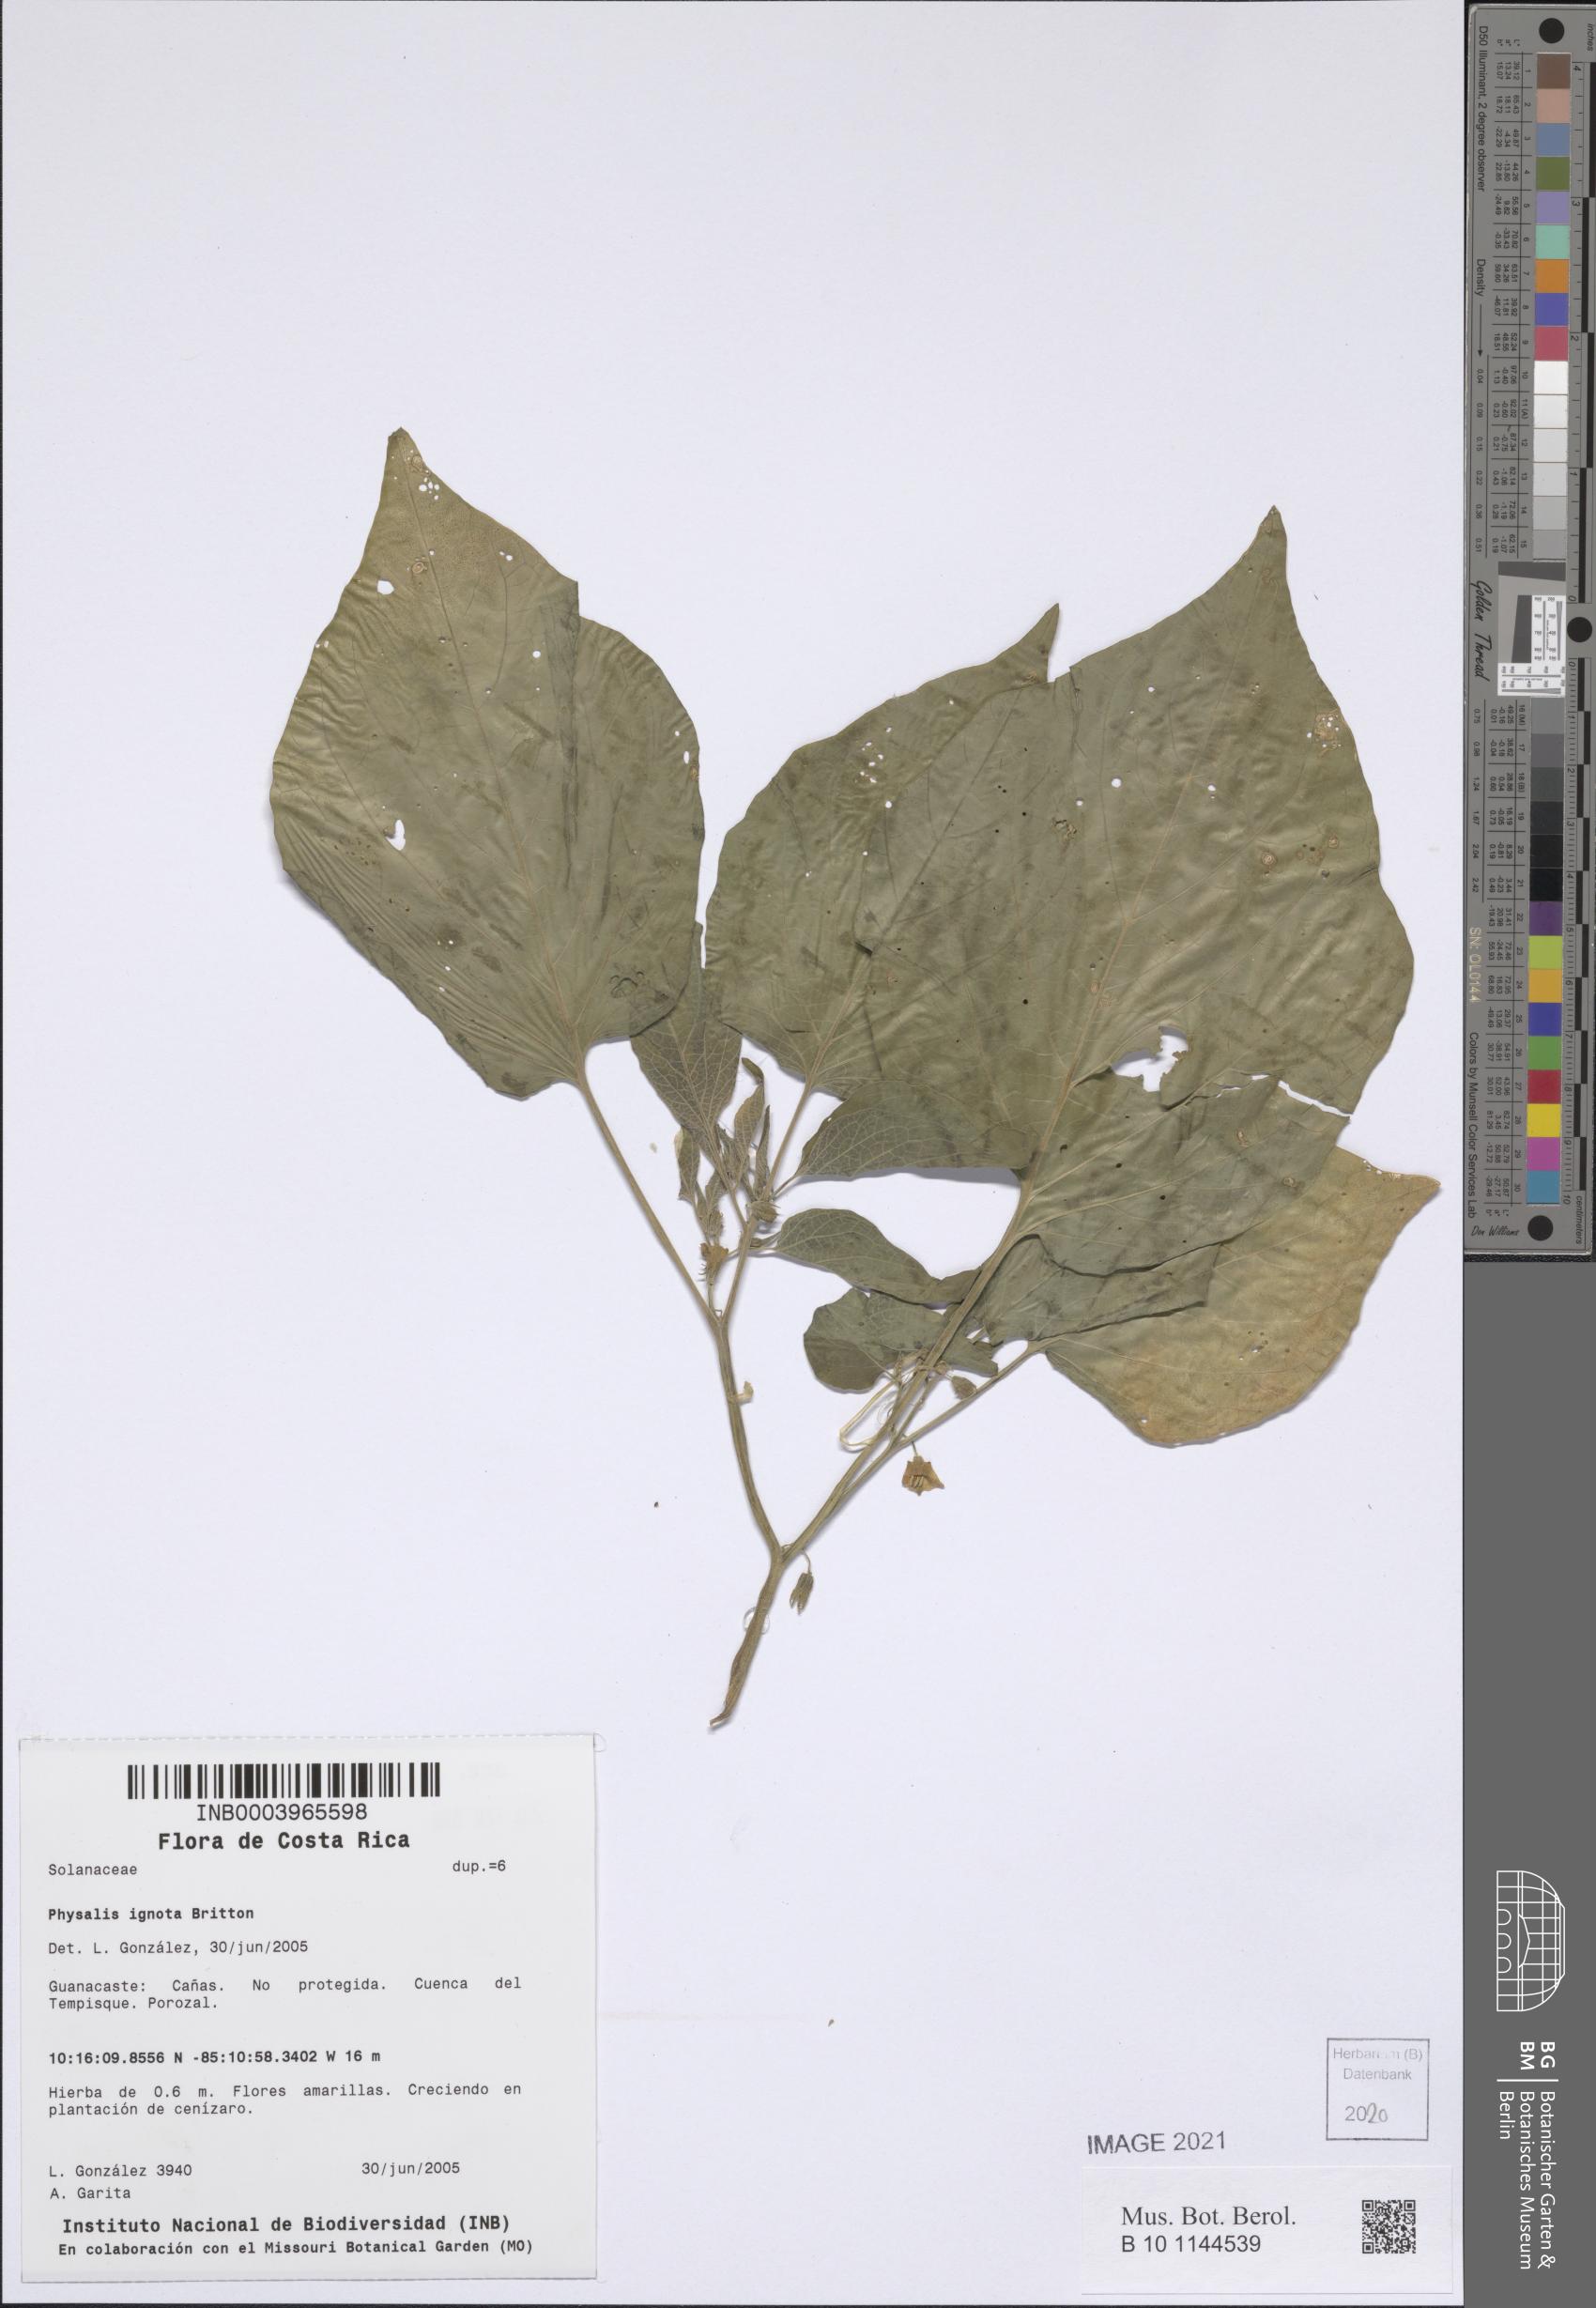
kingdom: Plantae
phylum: Tracheophyta
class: Magnoliopsida
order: Solanales
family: Solanaceae
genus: Physalis
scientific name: Physalis ignota
